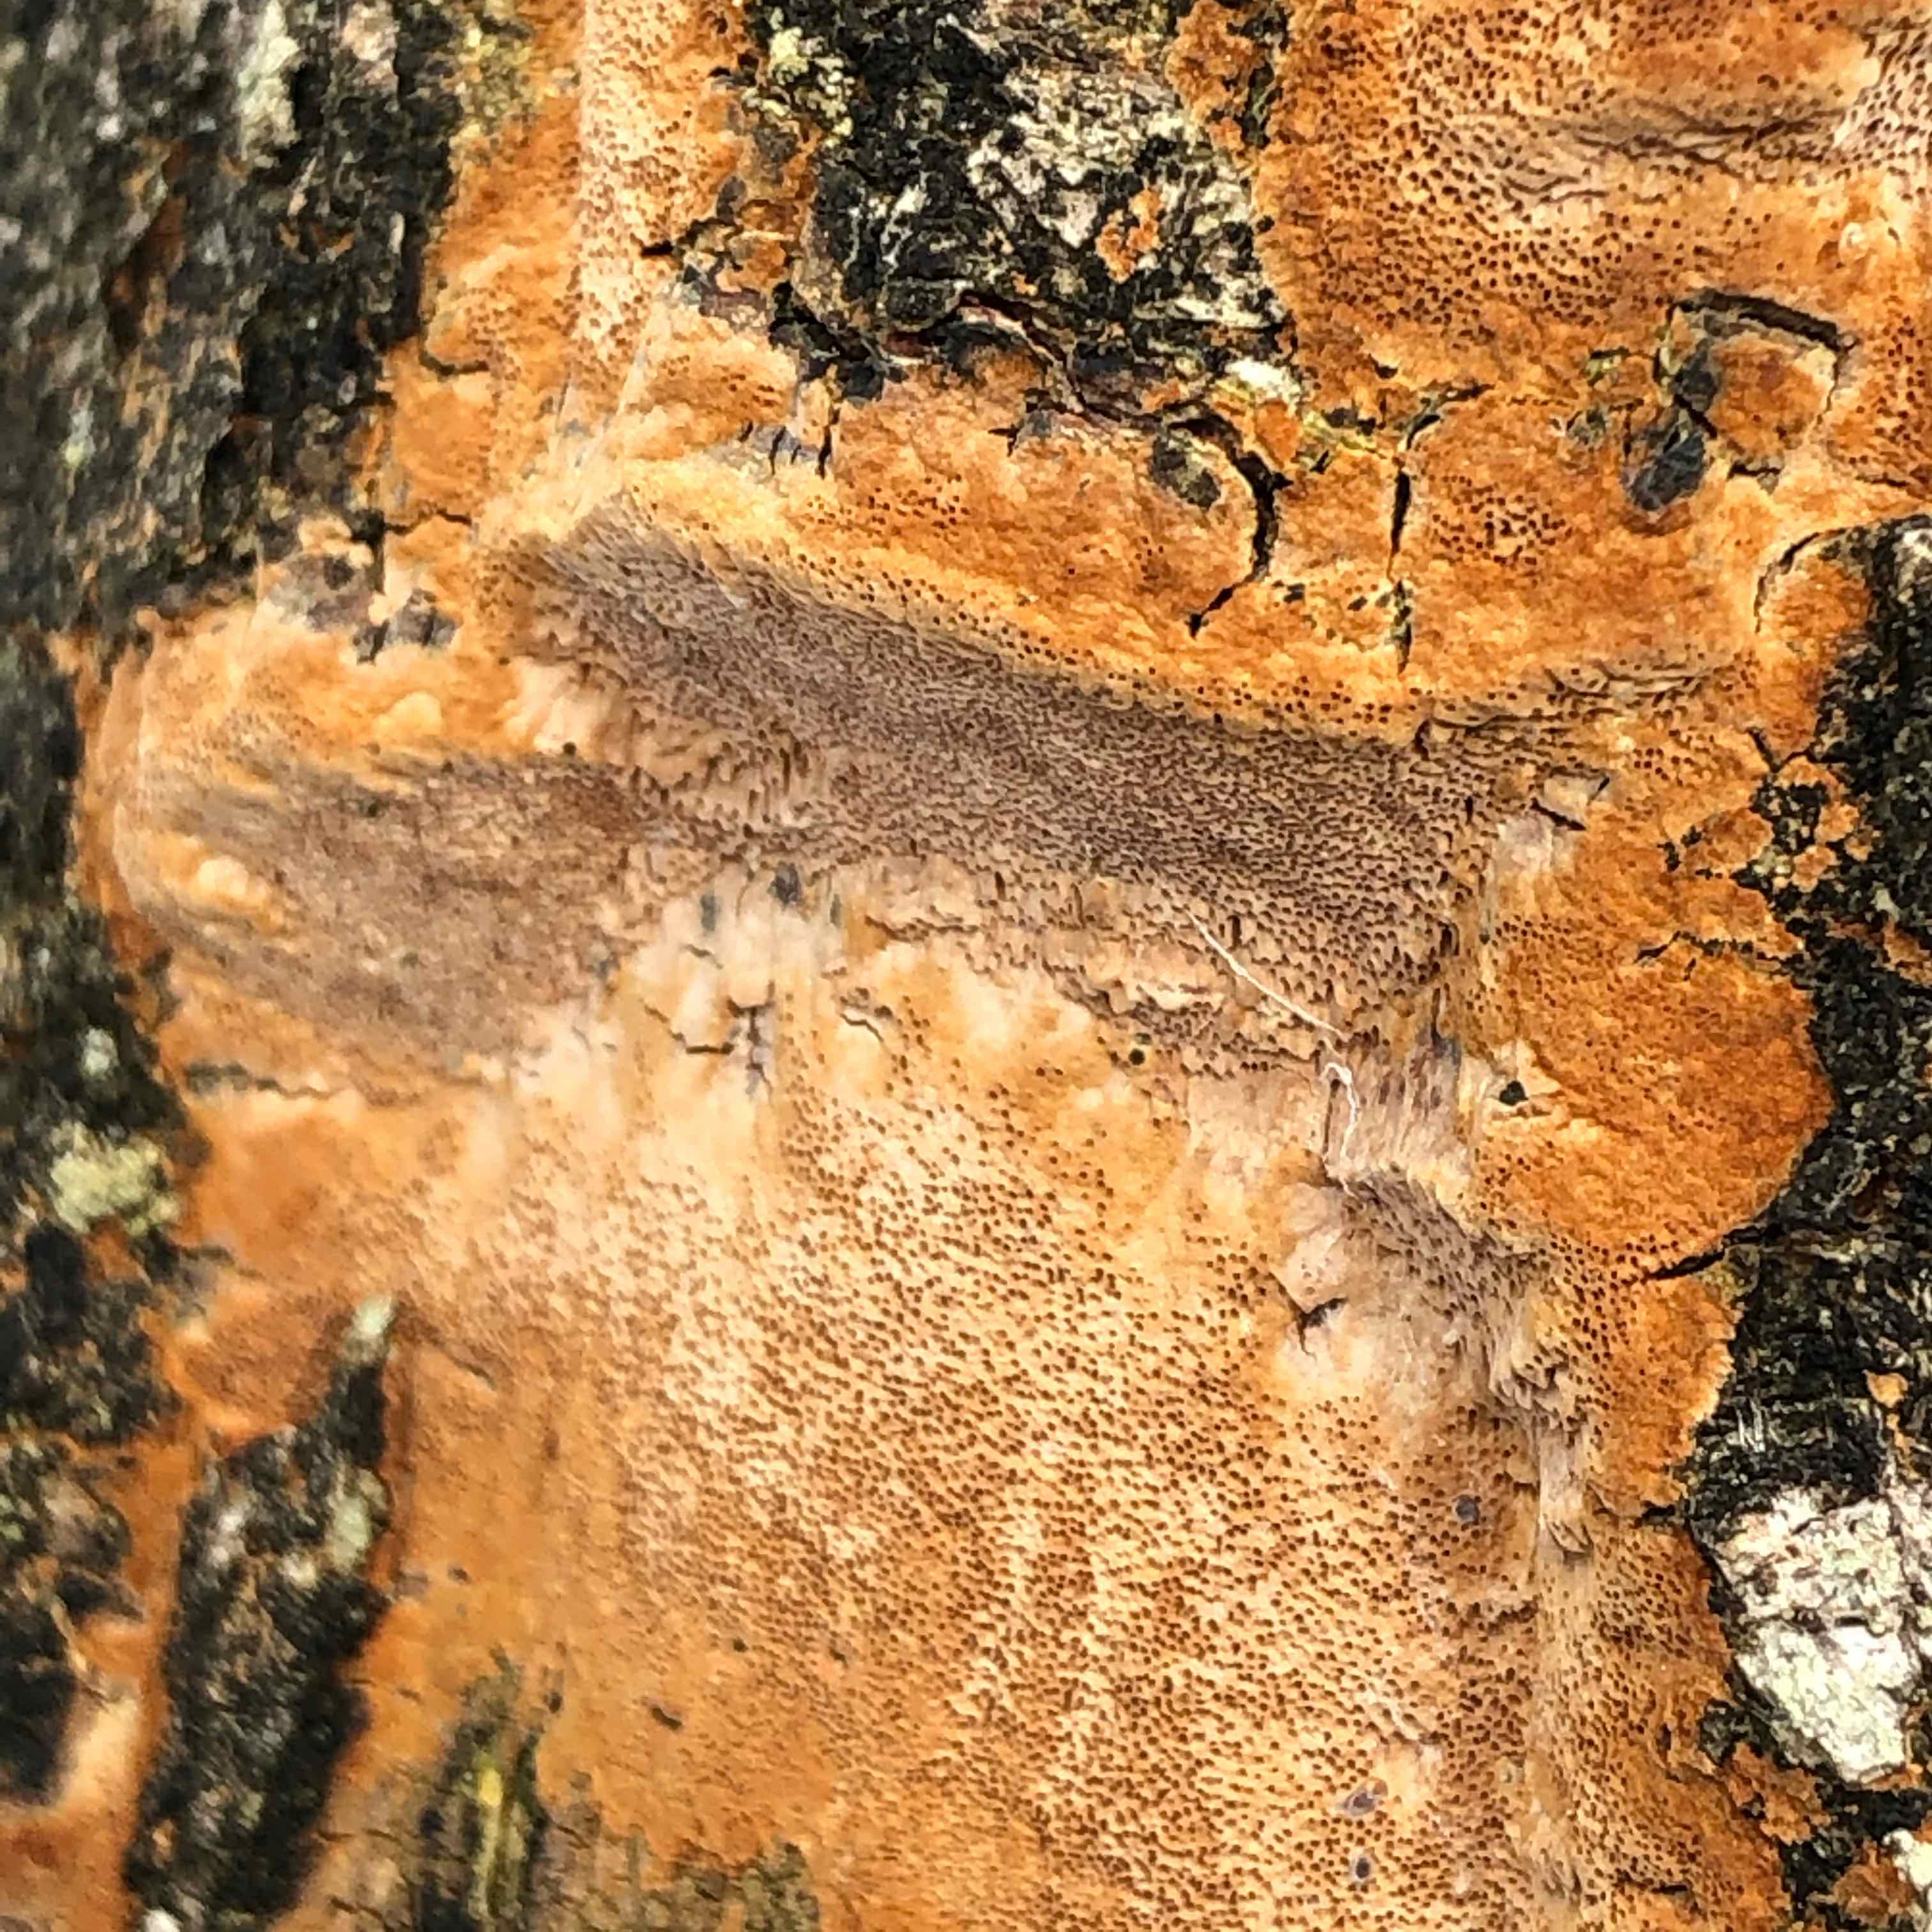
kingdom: Fungi
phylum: Basidiomycota
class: Agaricomycetes
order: Hymenochaetales
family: Hymenochaetaceae
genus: Fuscoporia
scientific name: Fuscoporia ferrea
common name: skorpe-ildporesvamp
